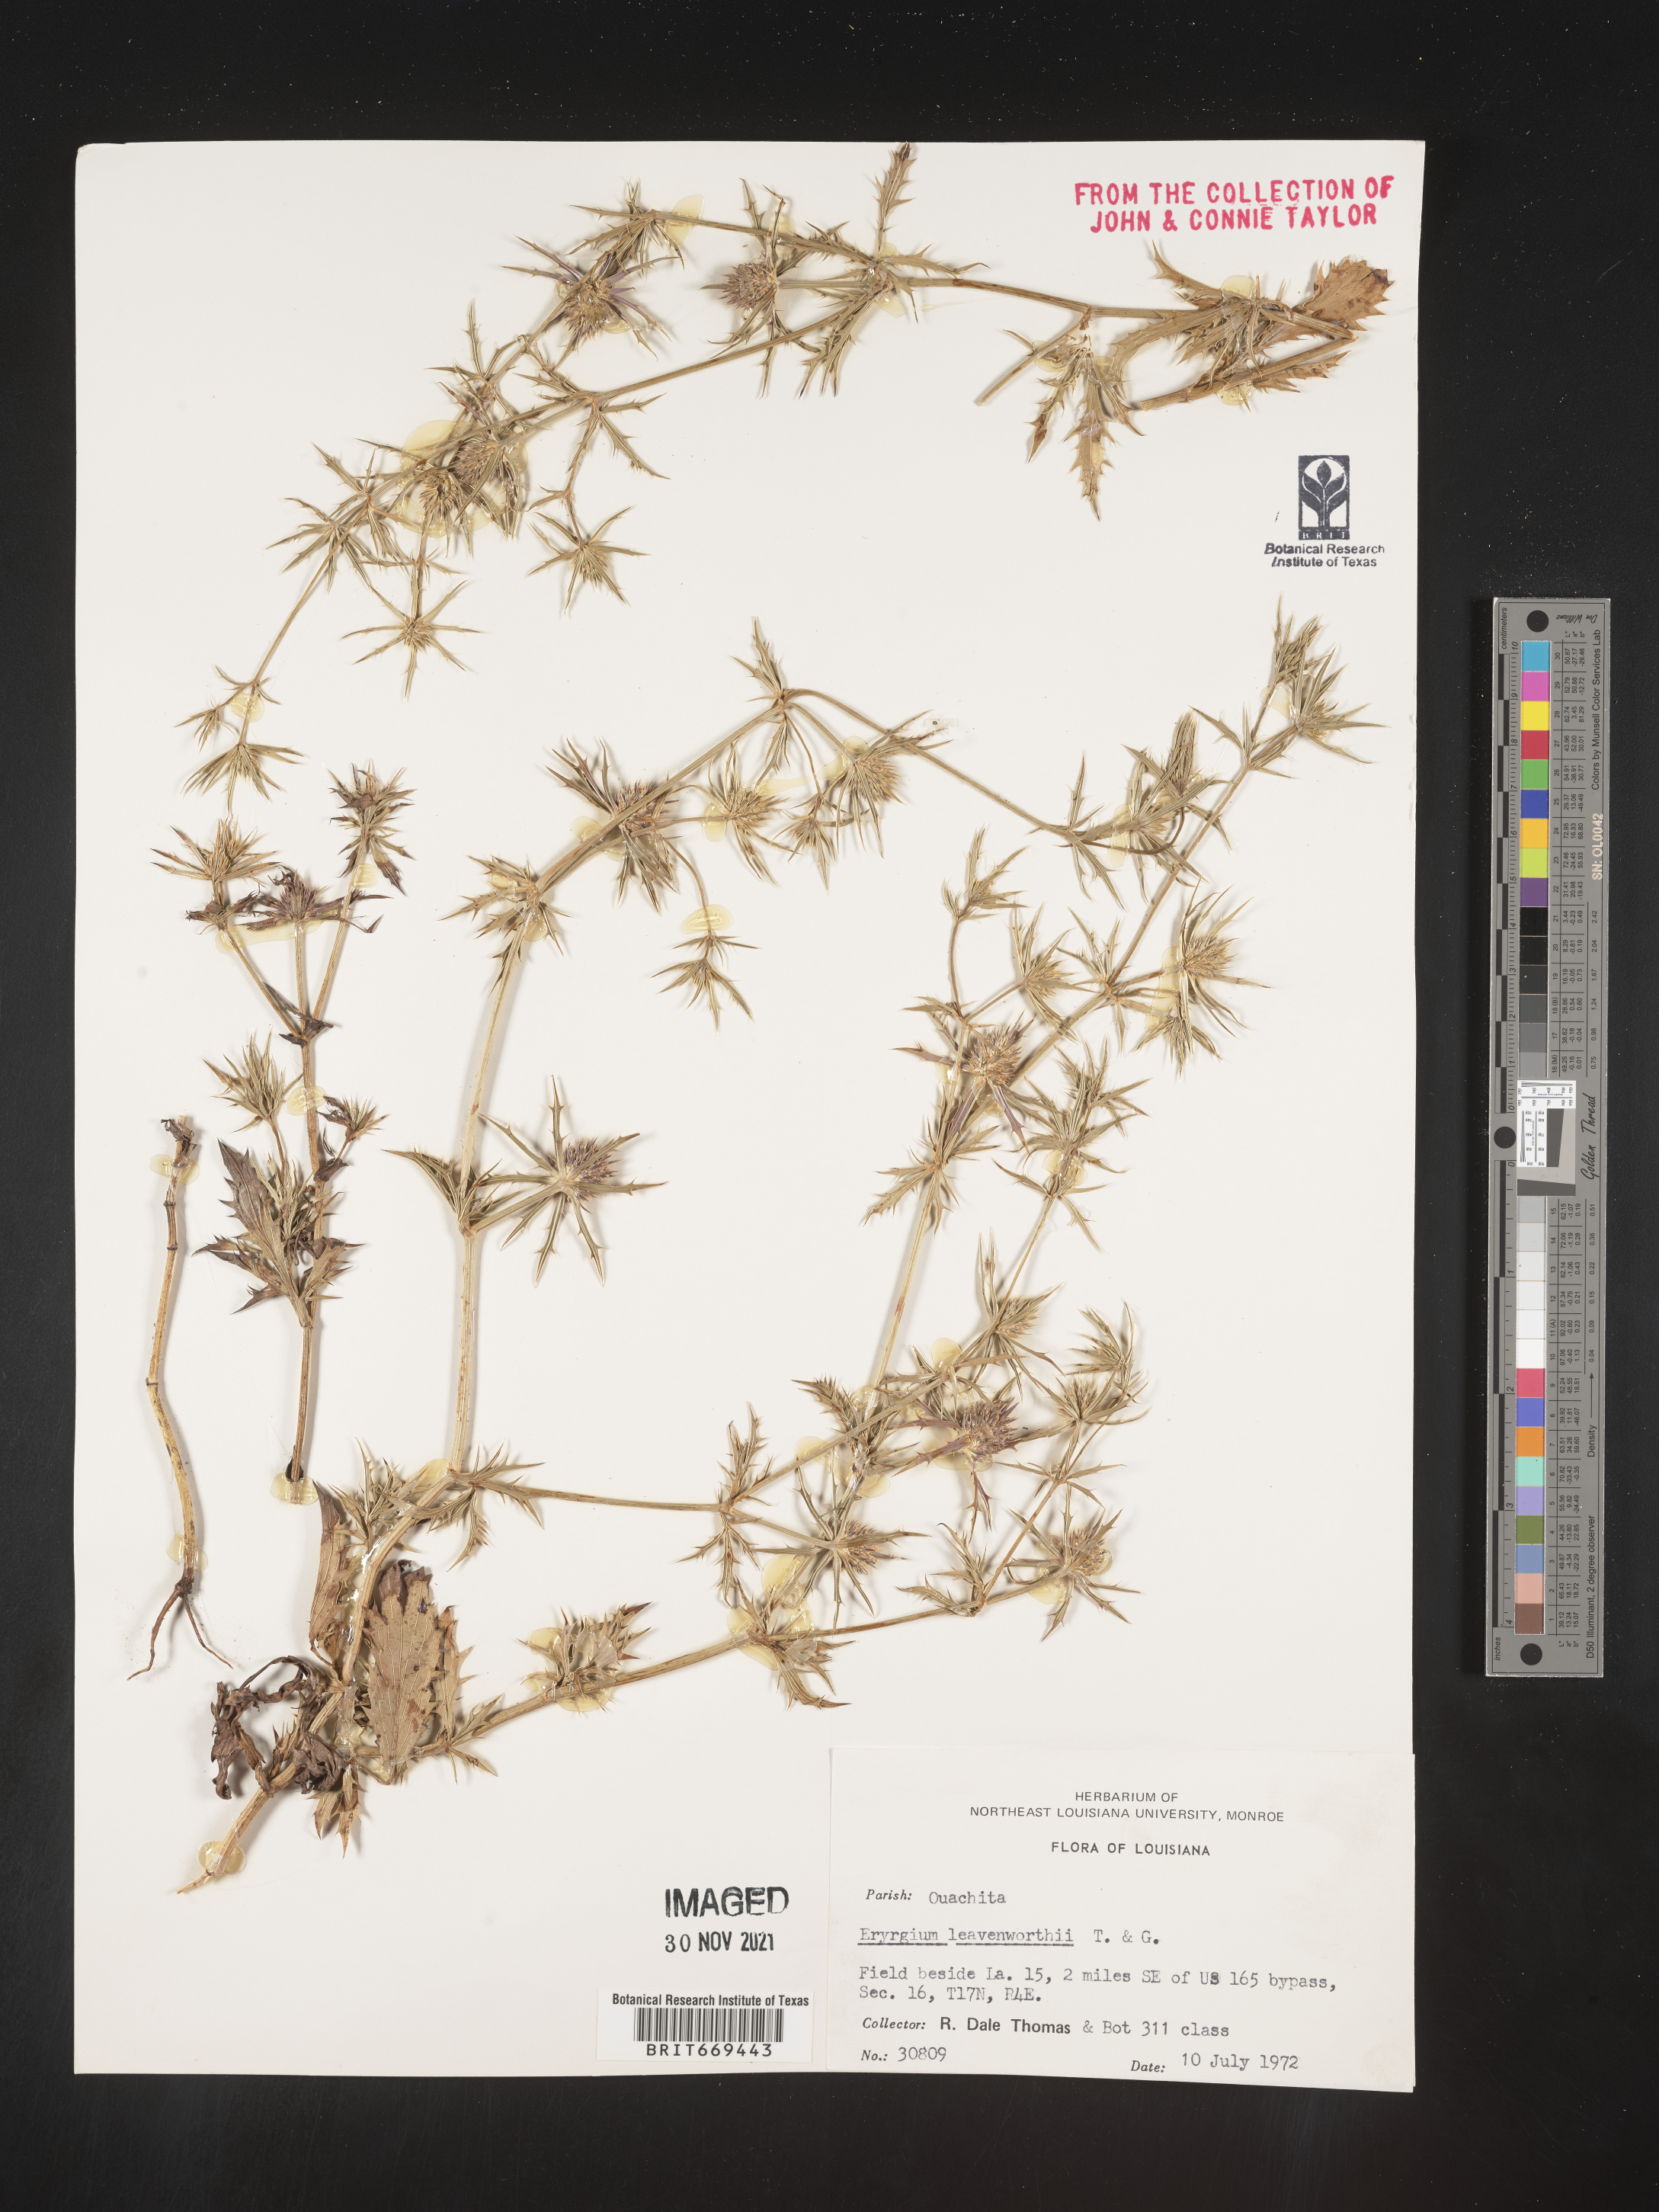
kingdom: Plantae
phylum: Tracheophyta
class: Magnoliopsida
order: Apiales
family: Apiaceae
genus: Eryngium
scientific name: Eryngium leavenworthii
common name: Leavenworth's eryngo
